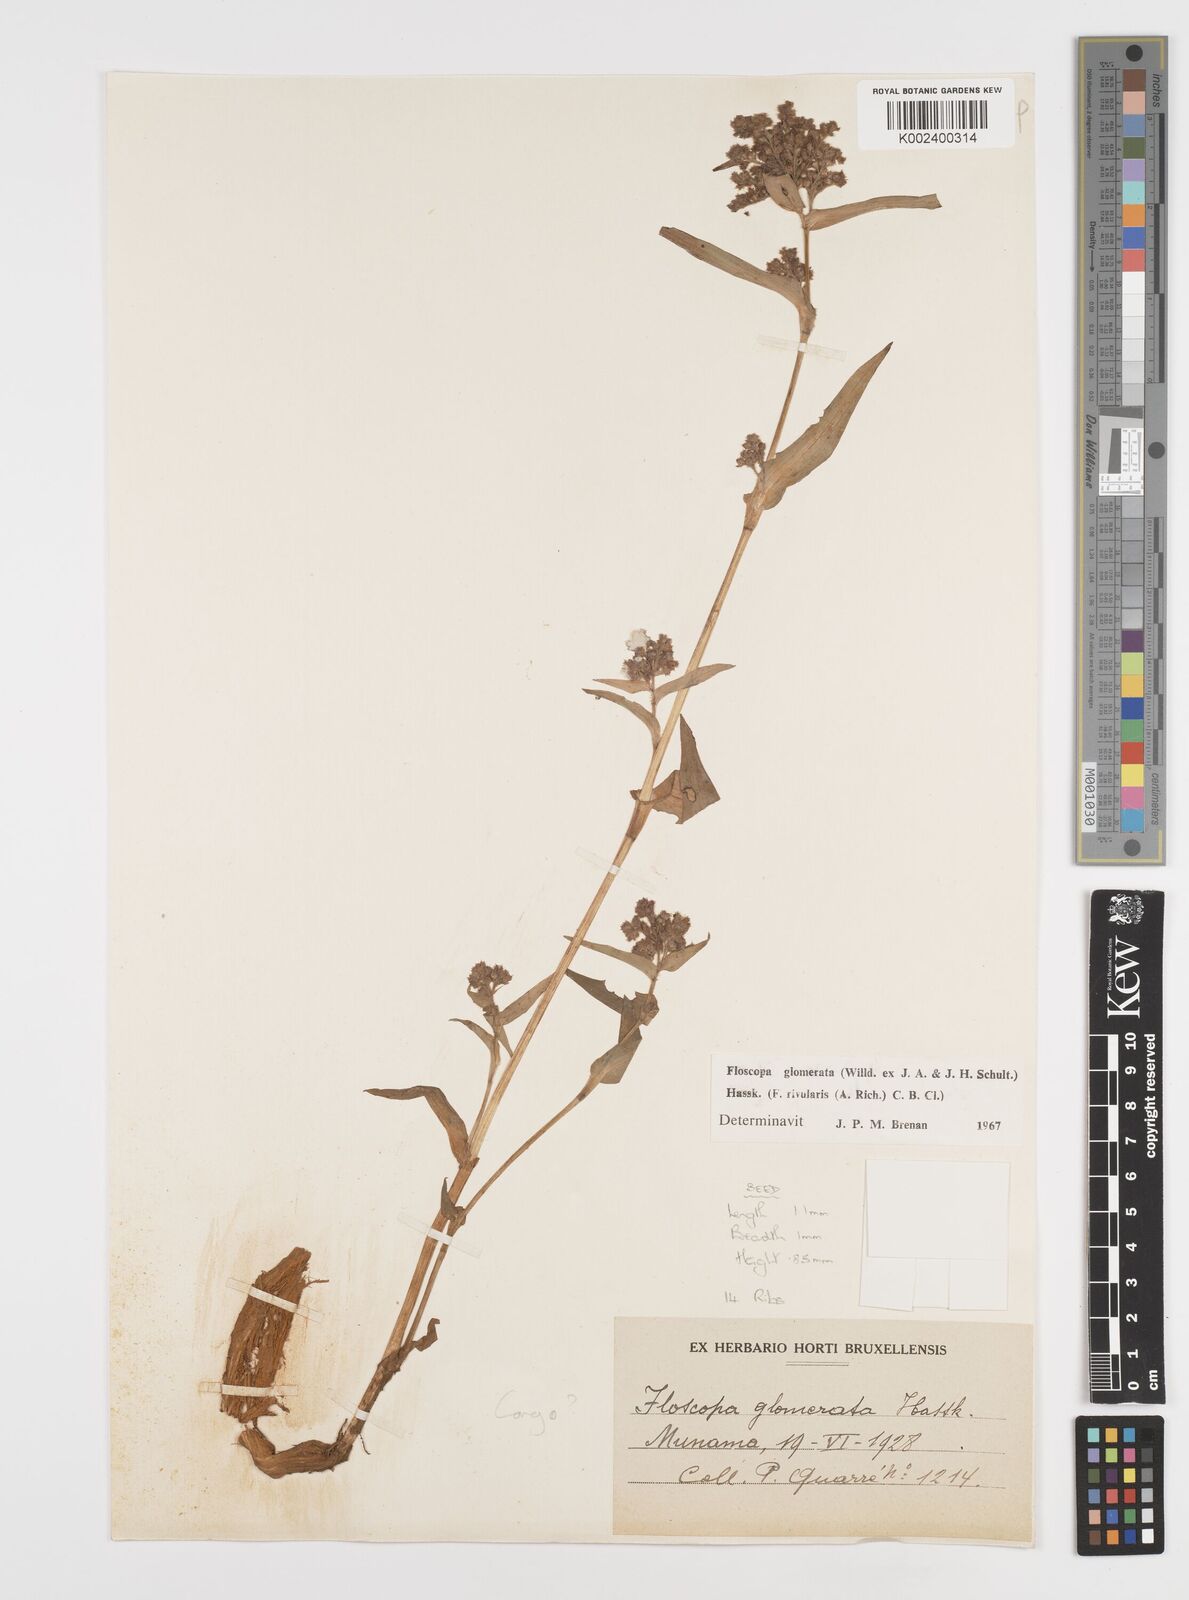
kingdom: Plantae
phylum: Tracheophyta
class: Liliopsida
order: Commelinales
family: Commelinaceae
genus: Floscopa
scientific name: Floscopa glomerata
